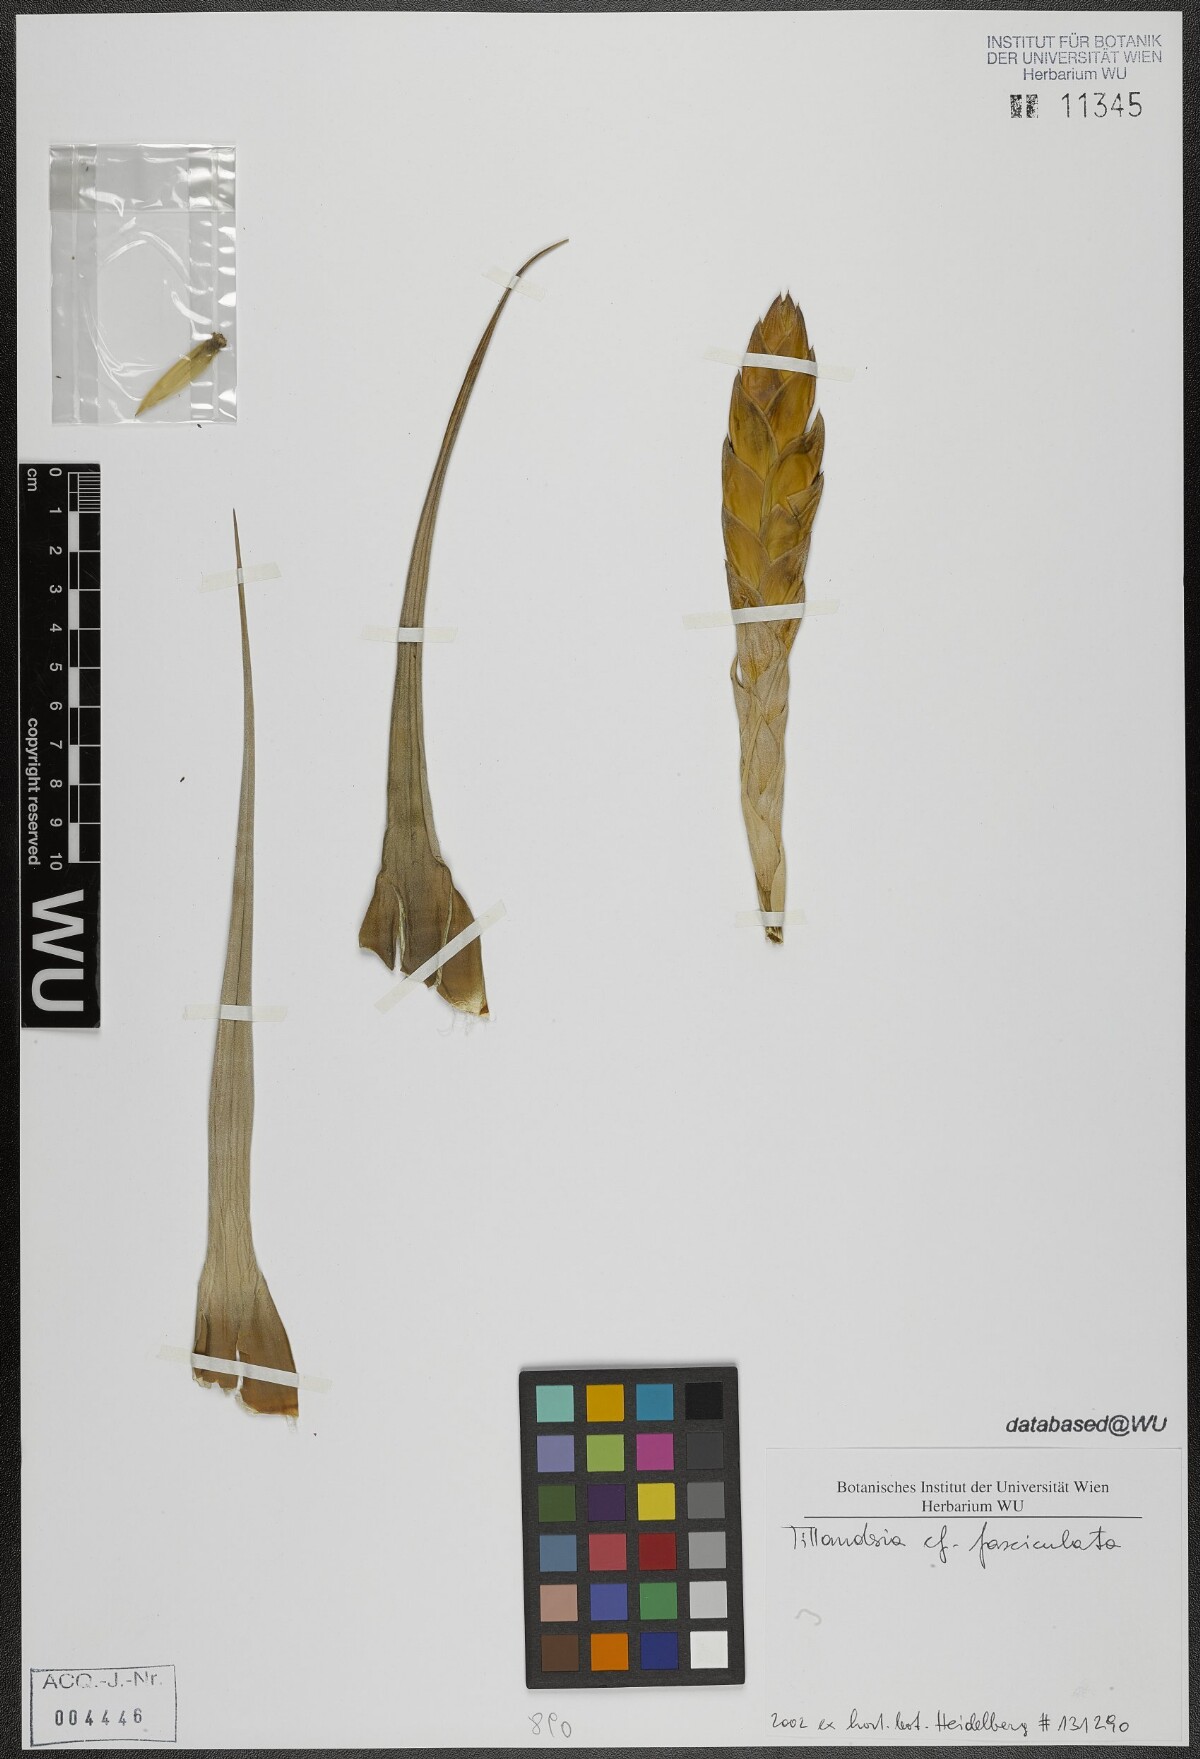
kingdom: Plantae
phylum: Tracheophyta
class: Liliopsida
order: Poales
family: Bromeliaceae
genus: Tillandsia
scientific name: Tillandsia fasciculata
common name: Giant airplant
